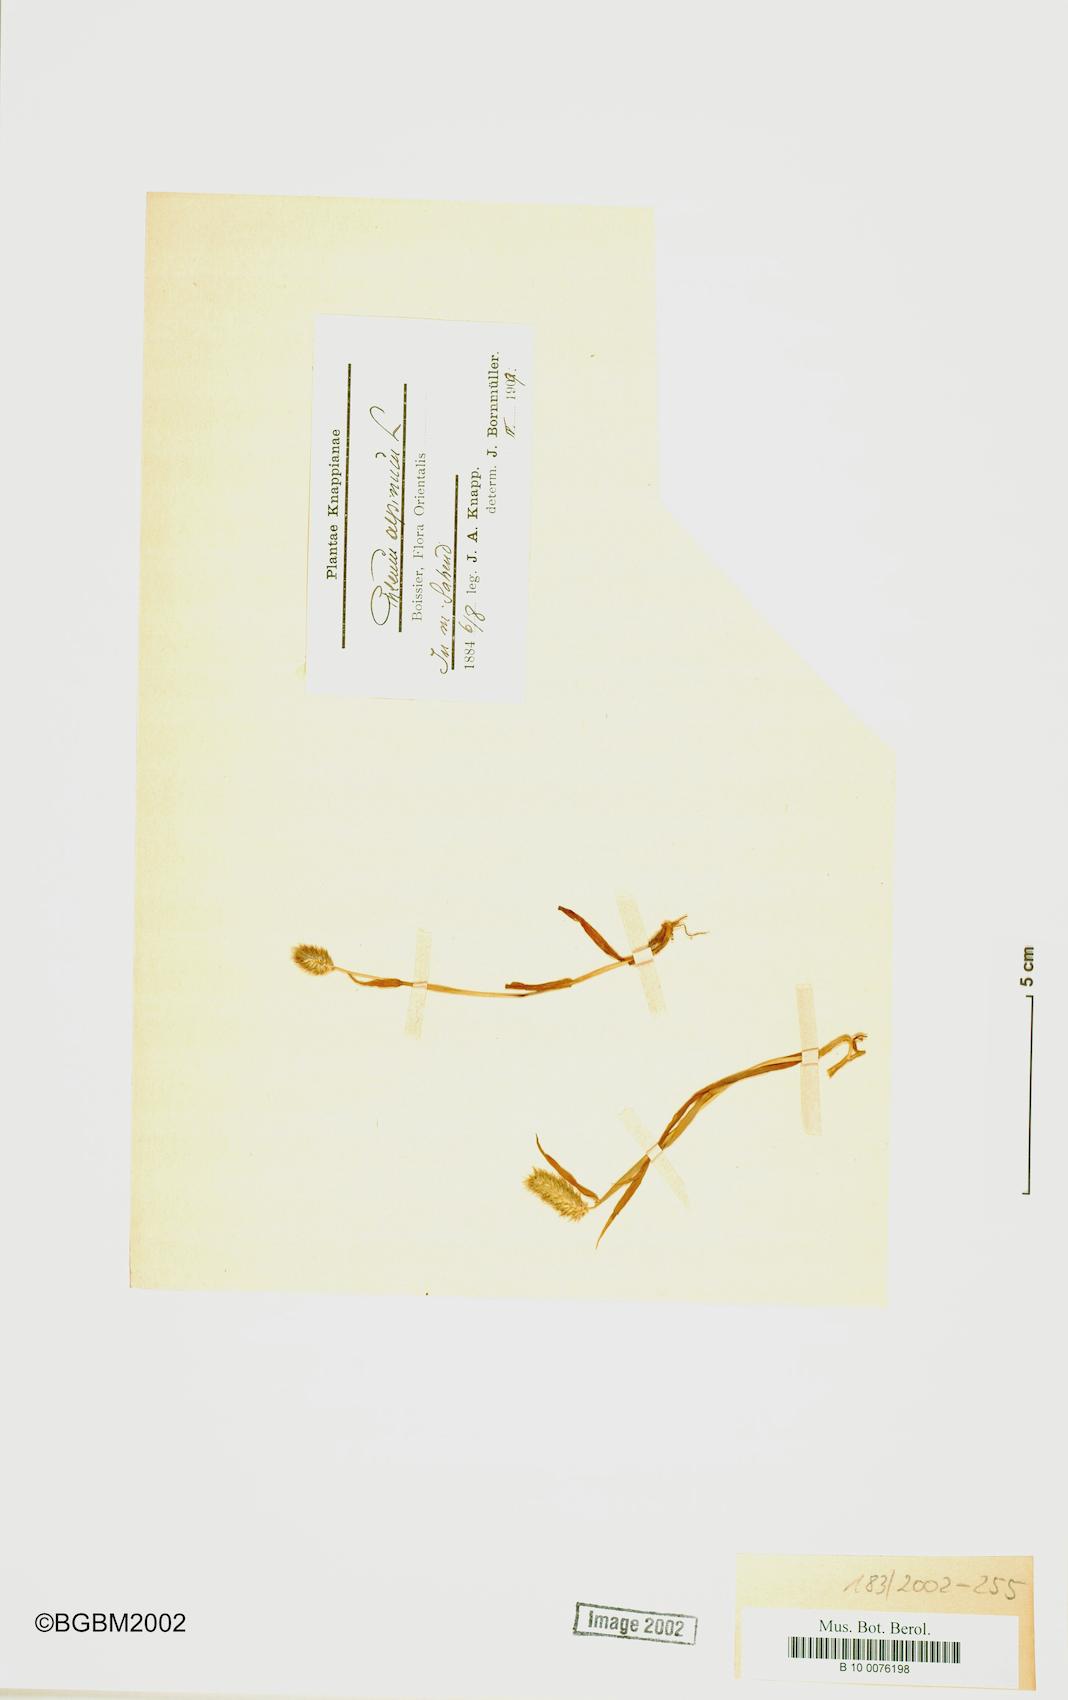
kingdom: Plantae
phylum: Tracheophyta
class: Liliopsida
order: Poales
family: Poaceae
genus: Phleum
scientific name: Phleum alpinum
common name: Alpine cat's-tail
